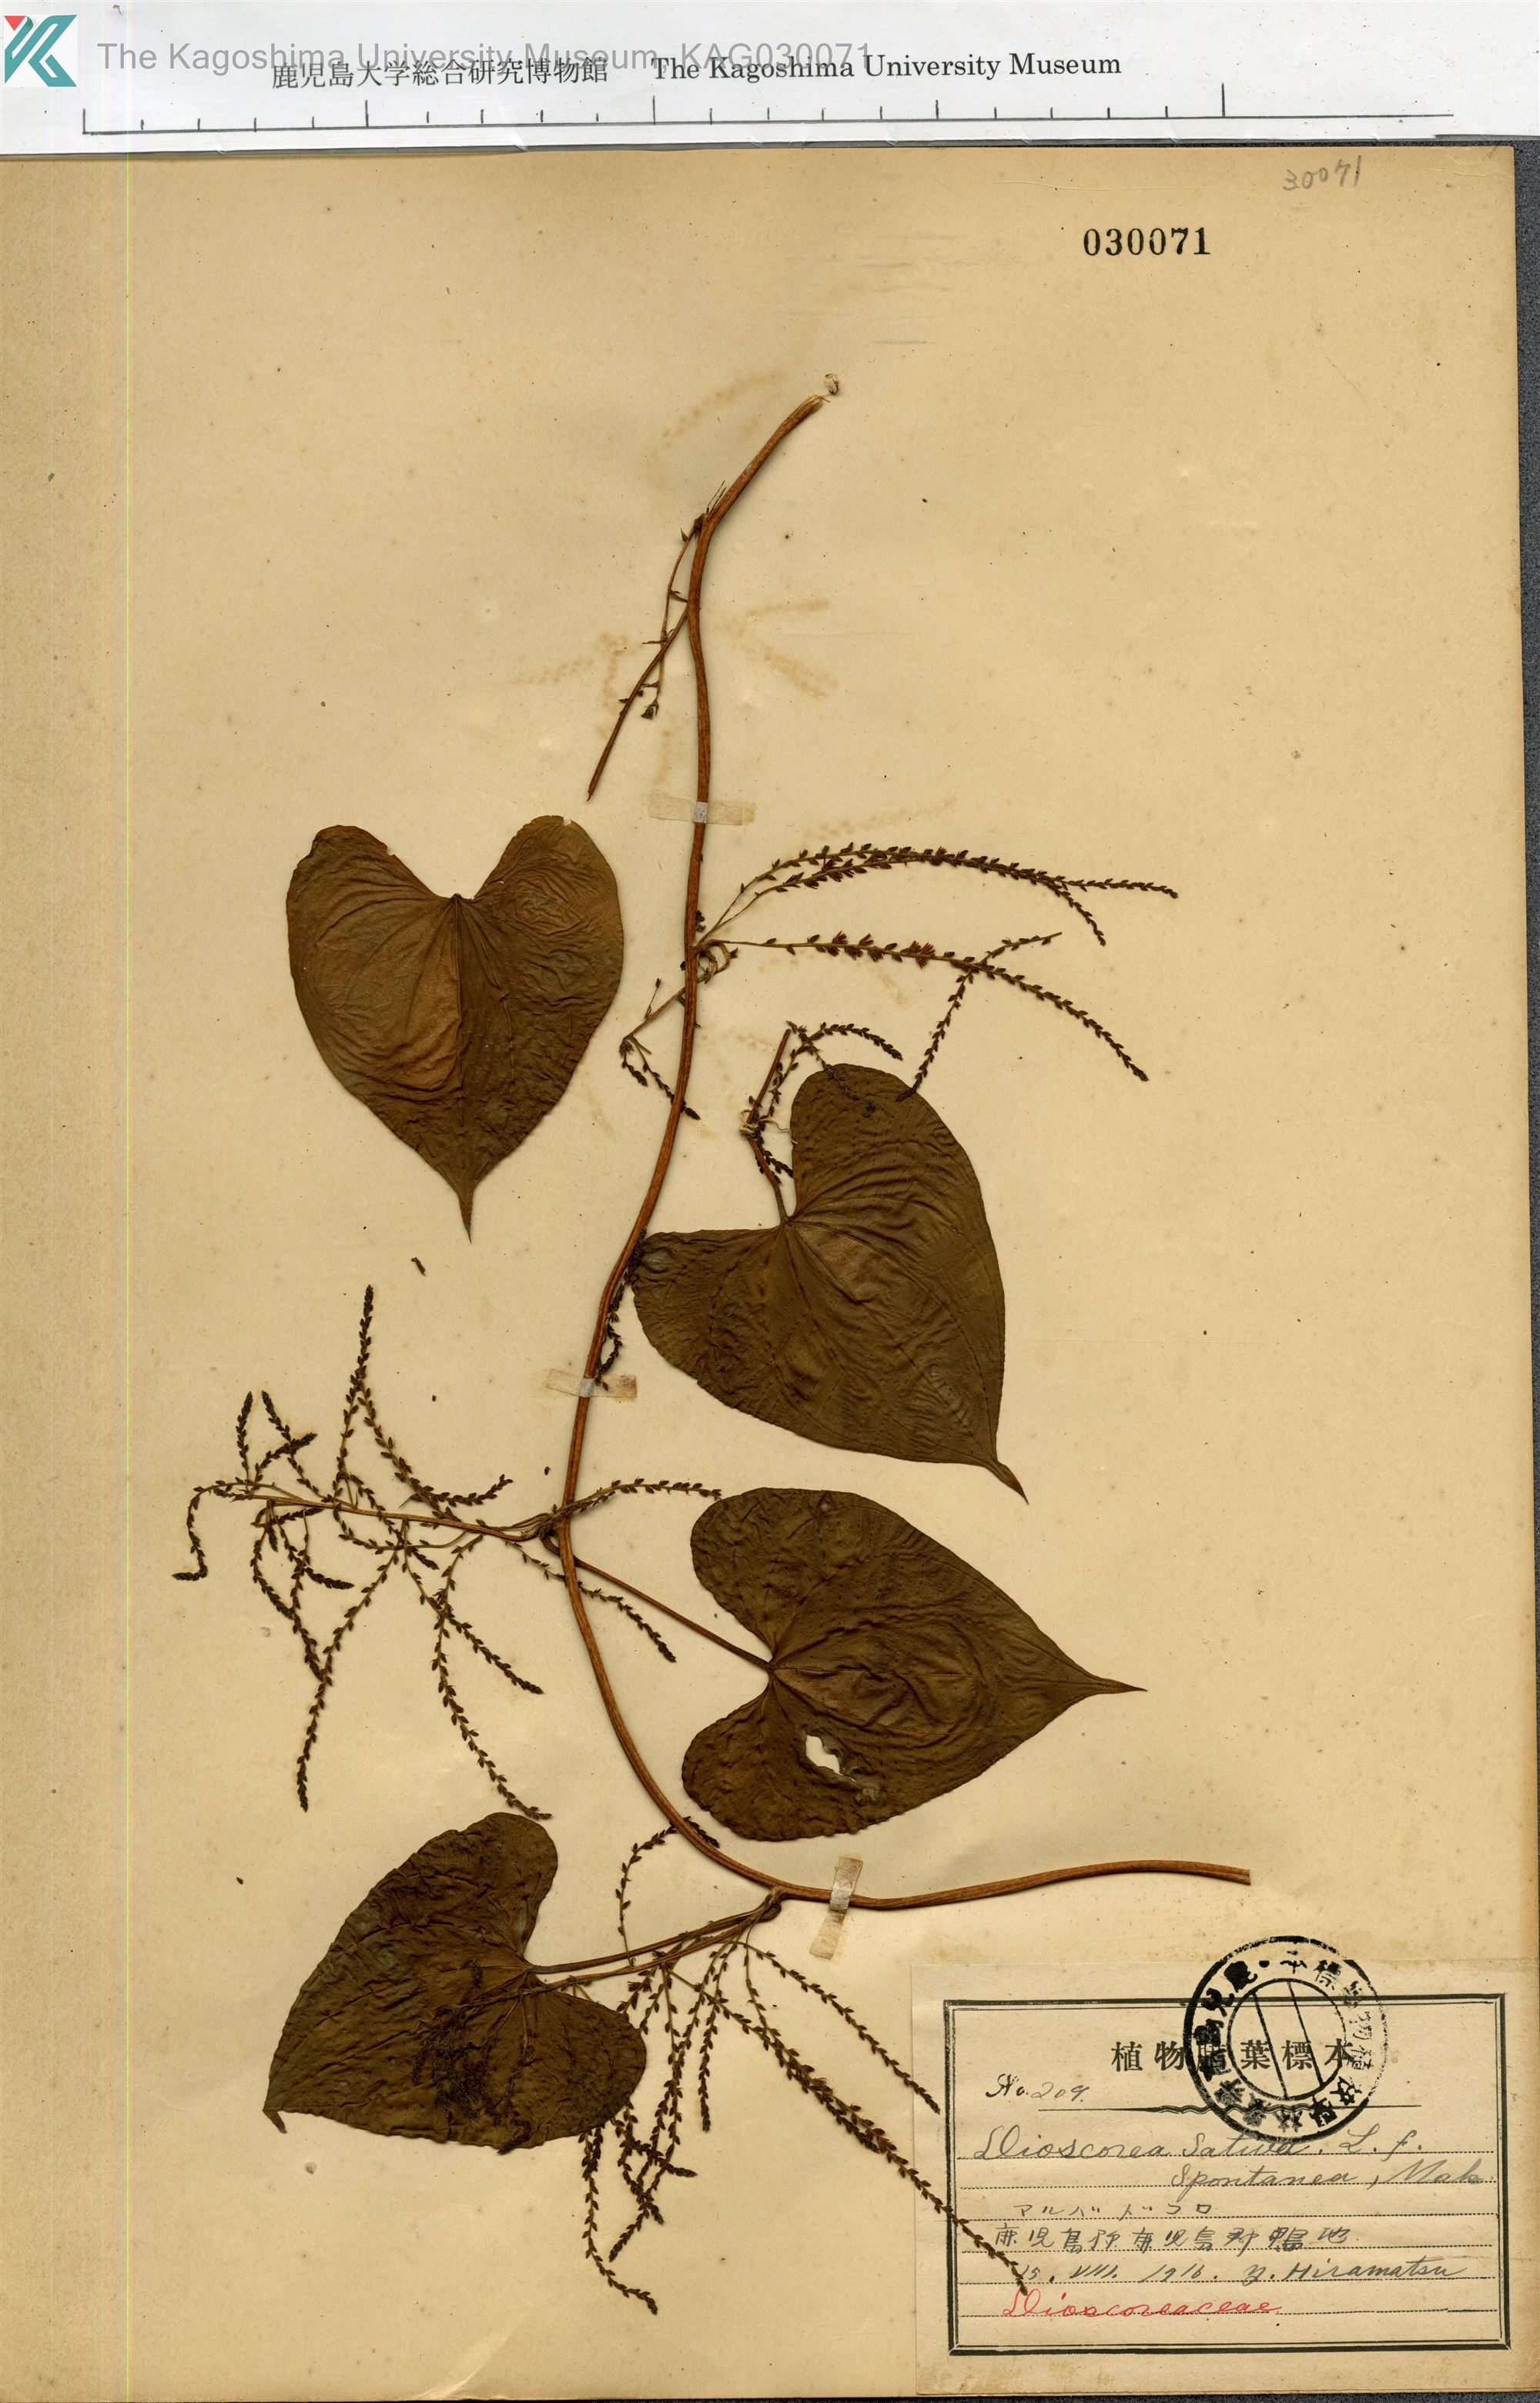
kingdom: Plantae
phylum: Tracheophyta
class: Liliopsida
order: Dioscoreales
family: Dioscoreaceae
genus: Dioscorea
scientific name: Dioscorea bulbifera
